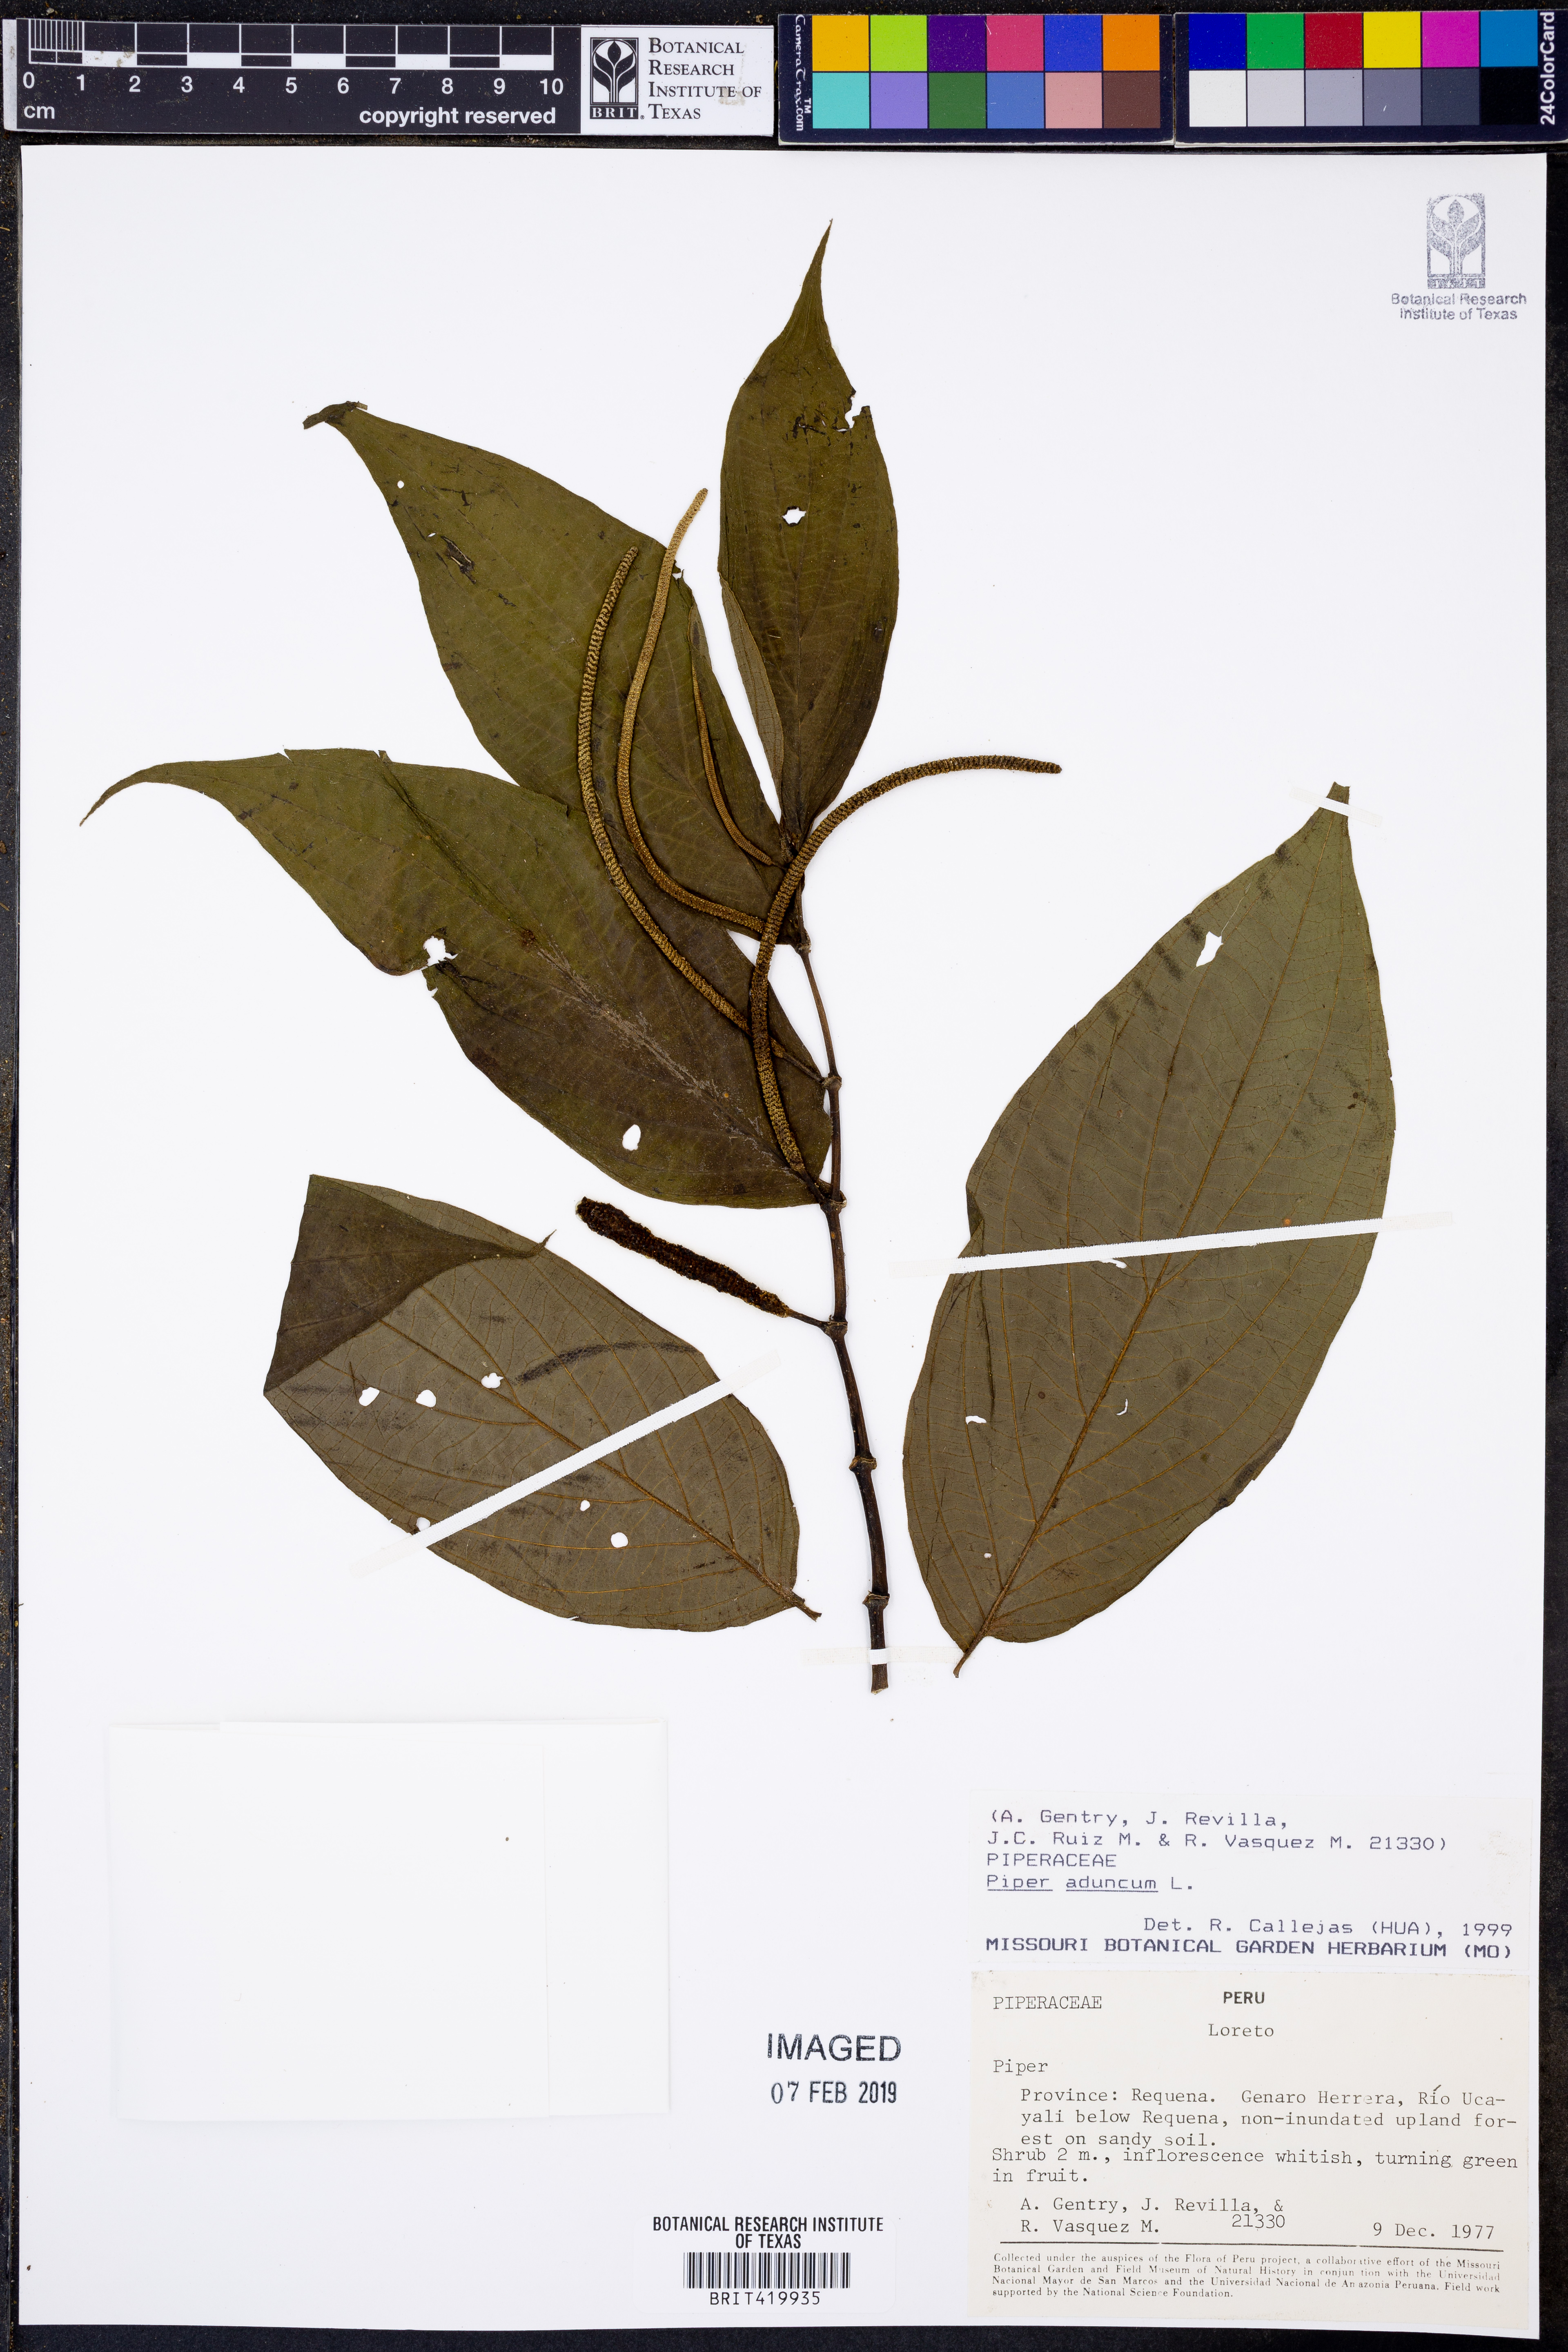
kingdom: Plantae
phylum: Tracheophyta
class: Magnoliopsida
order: Piperales
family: Piperaceae
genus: Piper
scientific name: Piper aduncum
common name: Spiked pepper
